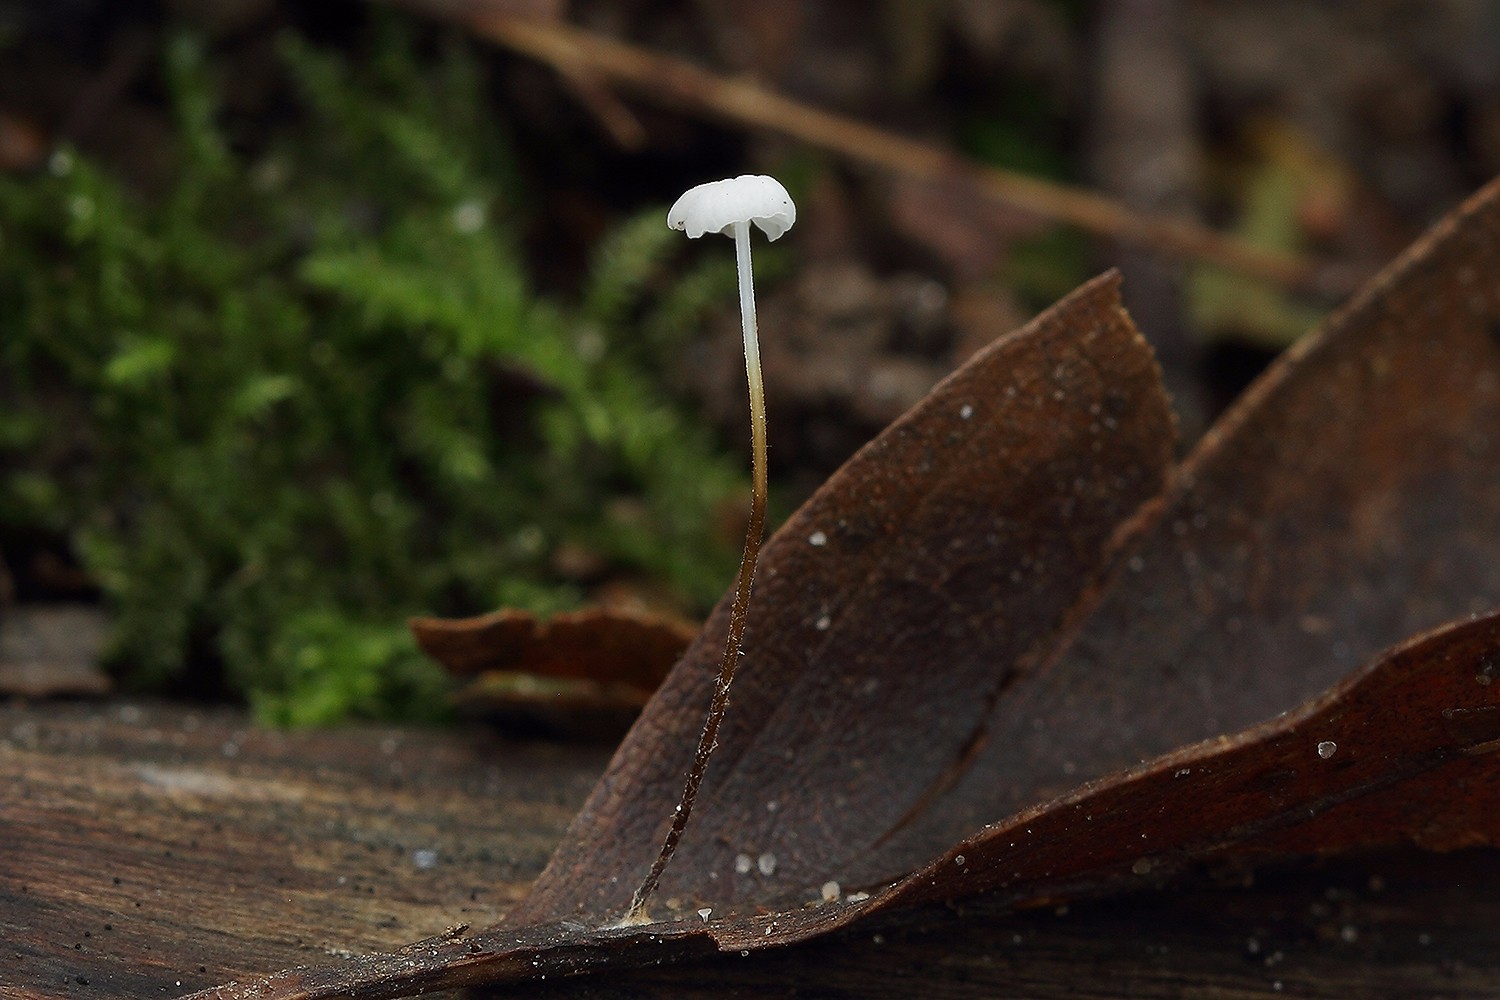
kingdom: Fungi
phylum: Basidiomycota
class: Agaricomycetes
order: Agaricales
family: Marasmiaceae
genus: Marasmius
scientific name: Marasmius epiphyllus
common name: blad-bruskhat
